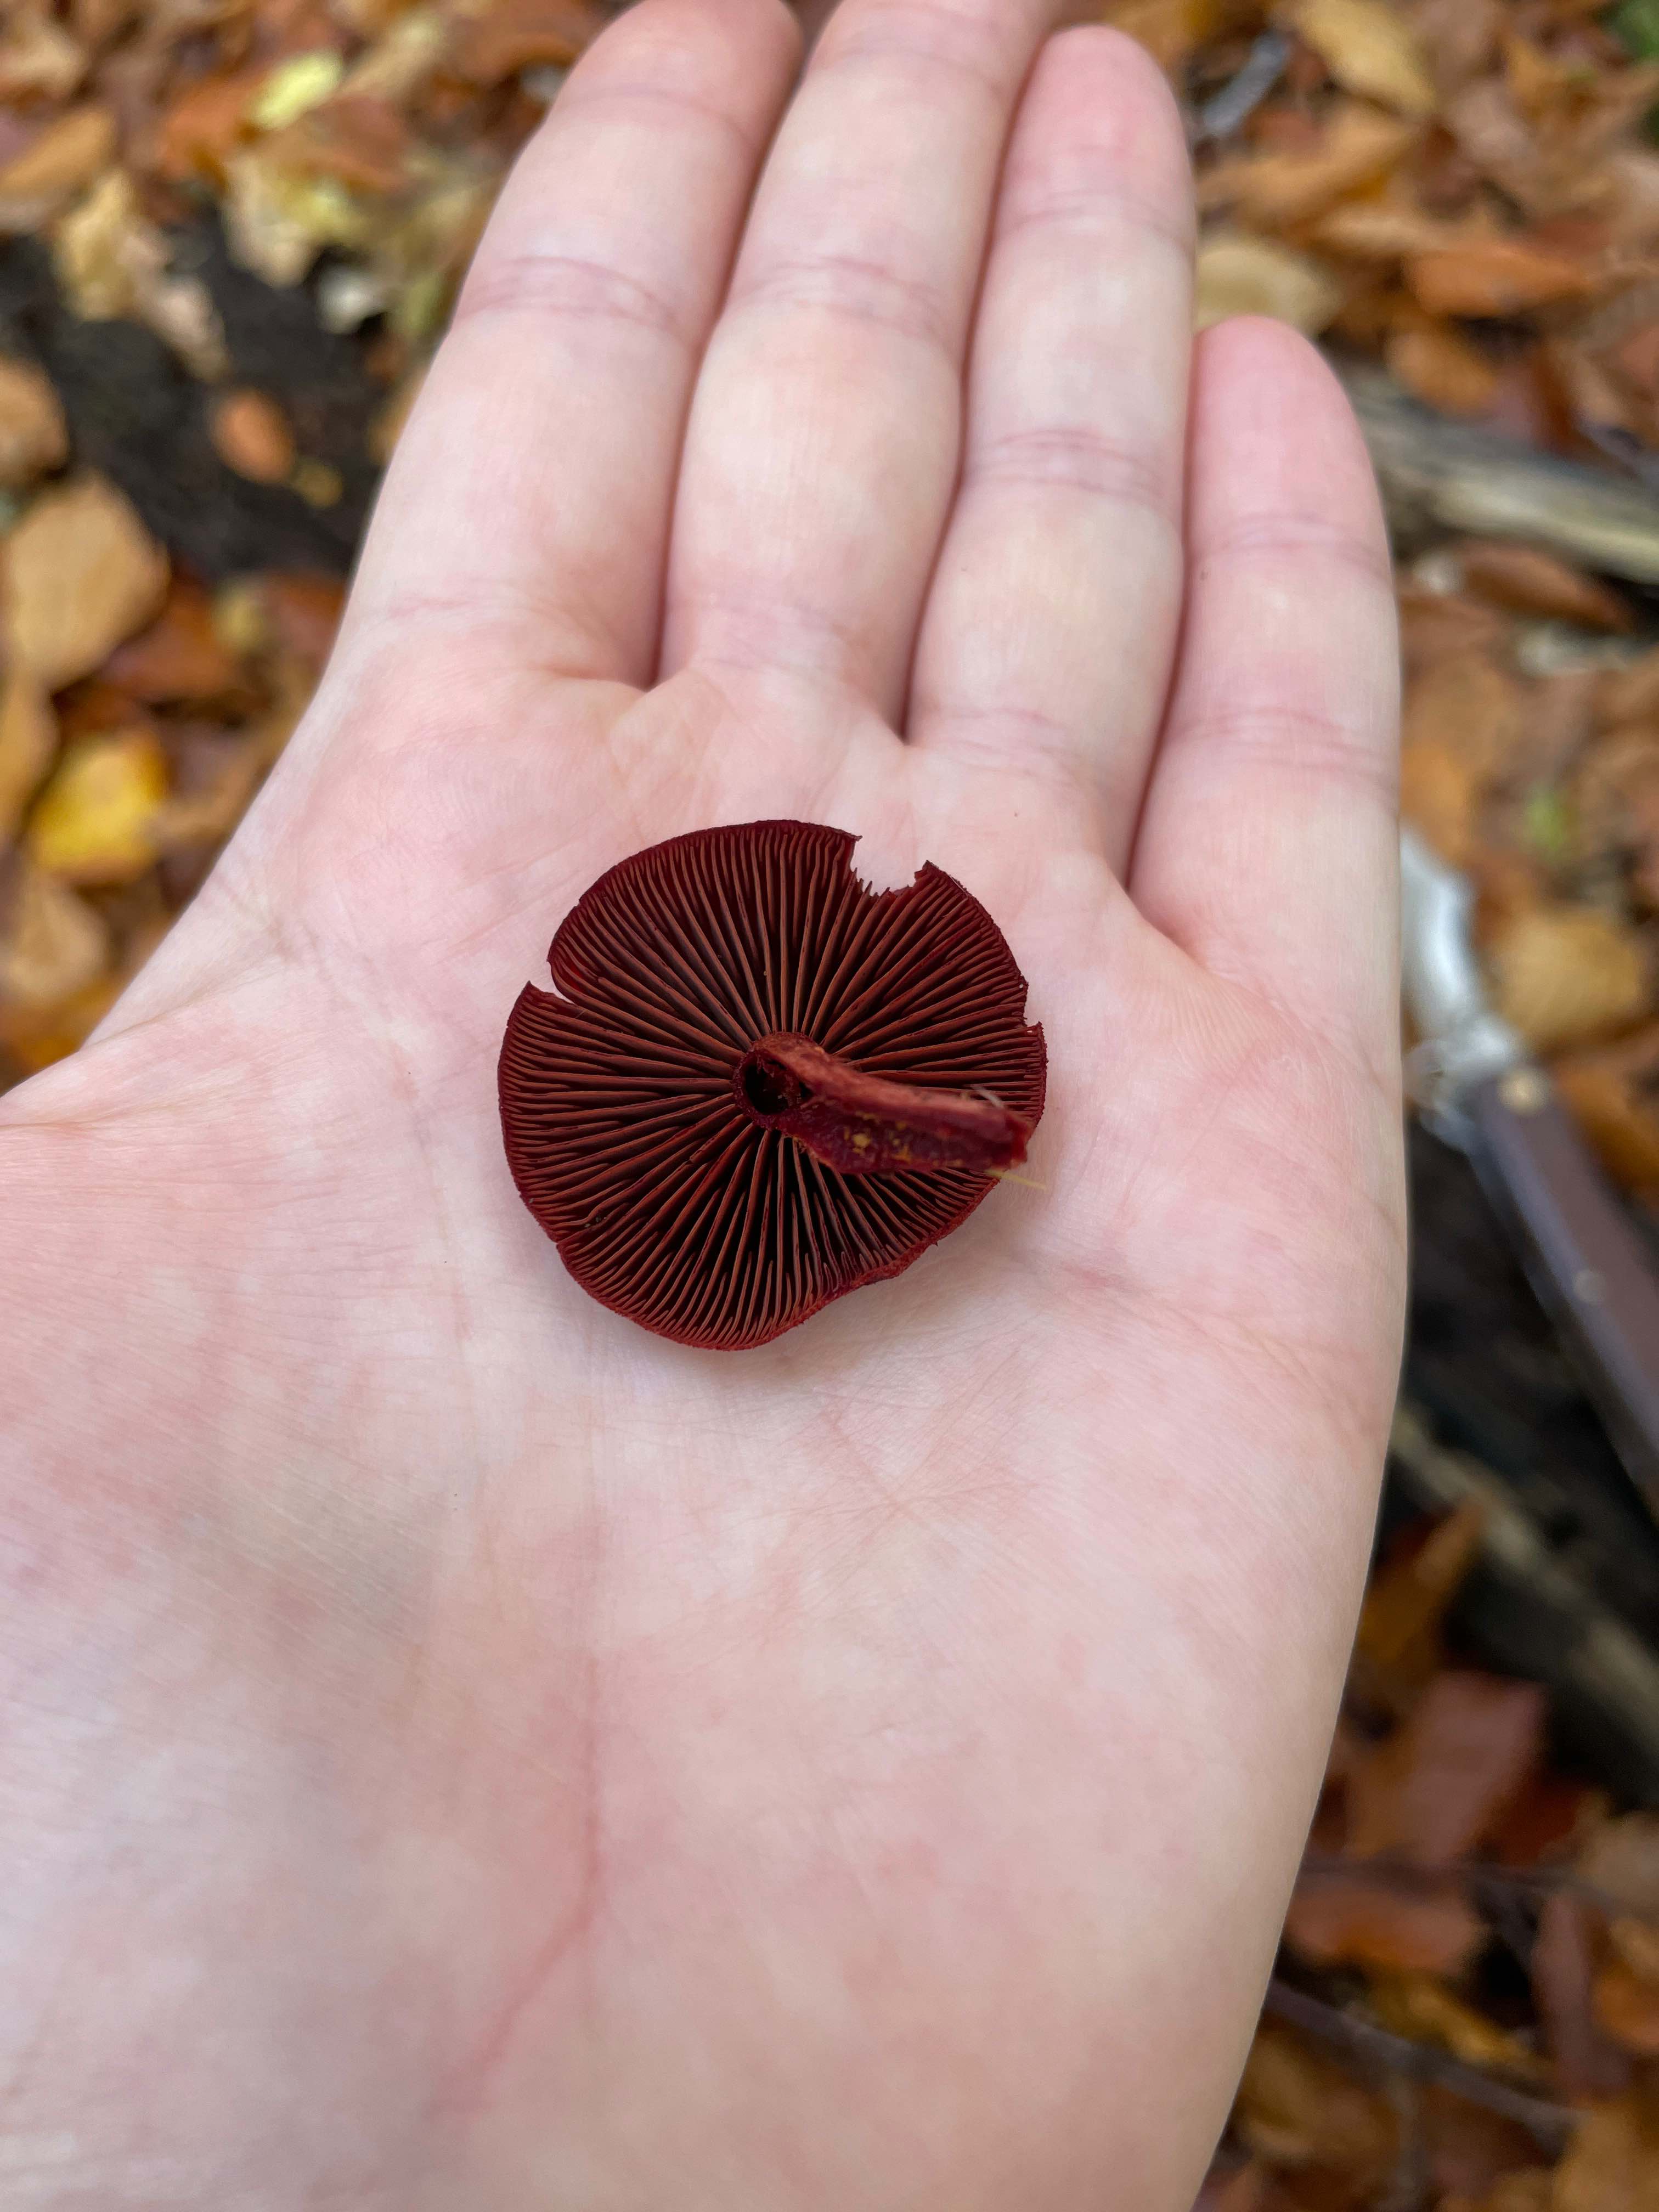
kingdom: Fungi
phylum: Basidiomycota
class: Agaricomycetes
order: Agaricales
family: Cortinariaceae
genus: Cortinarius
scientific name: Cortinarius sanguineus
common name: Bloodred webcap
